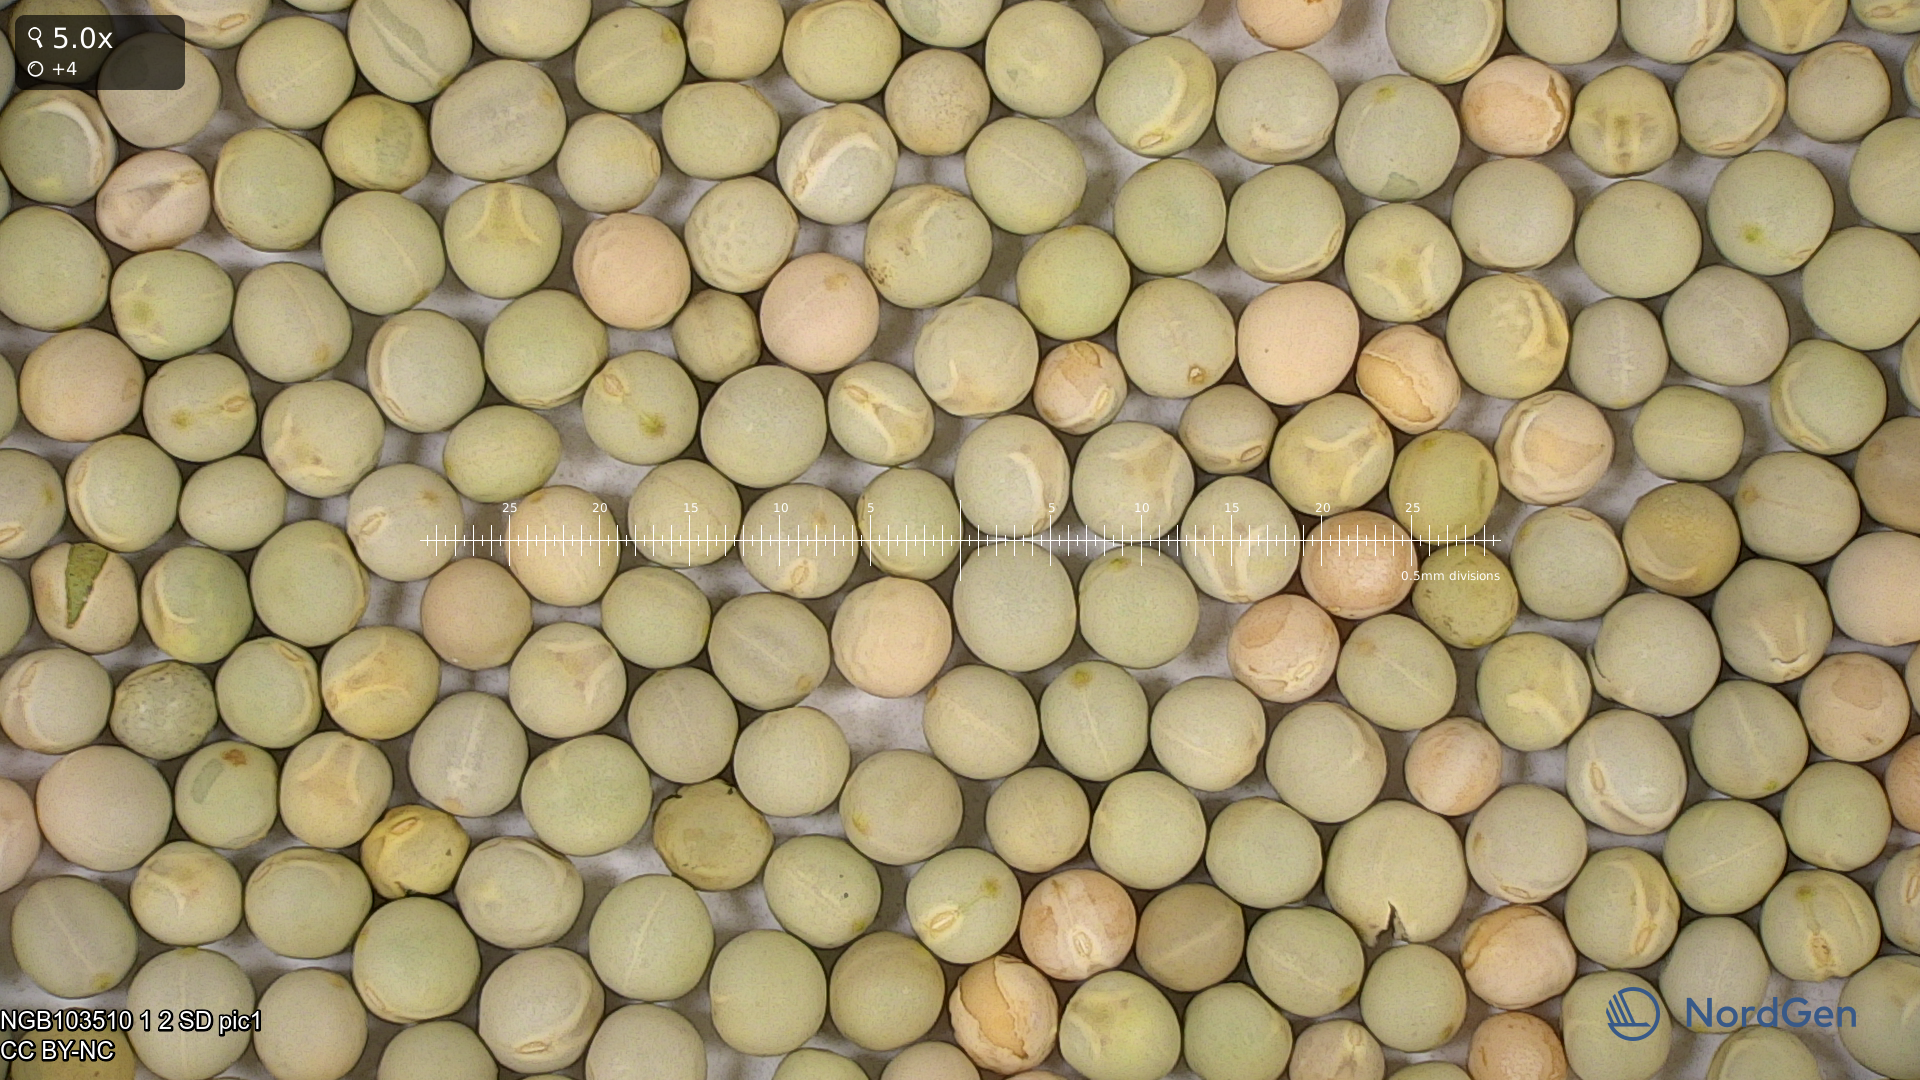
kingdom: Plantae
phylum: Tracheophyta
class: Magnoliopsida
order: Fabales
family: Fabaceae
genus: Lathyrus
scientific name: Lathyrus oleraceus
